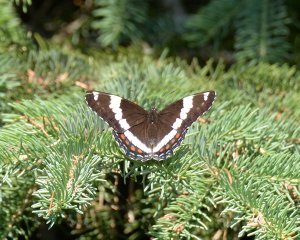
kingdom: Animalia
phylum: Arthropoda
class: Insecta
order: Lepidoptera
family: Nymphalidae
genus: Limenitis
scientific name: Limenitis arthemis
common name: Red-spotted Admiral
